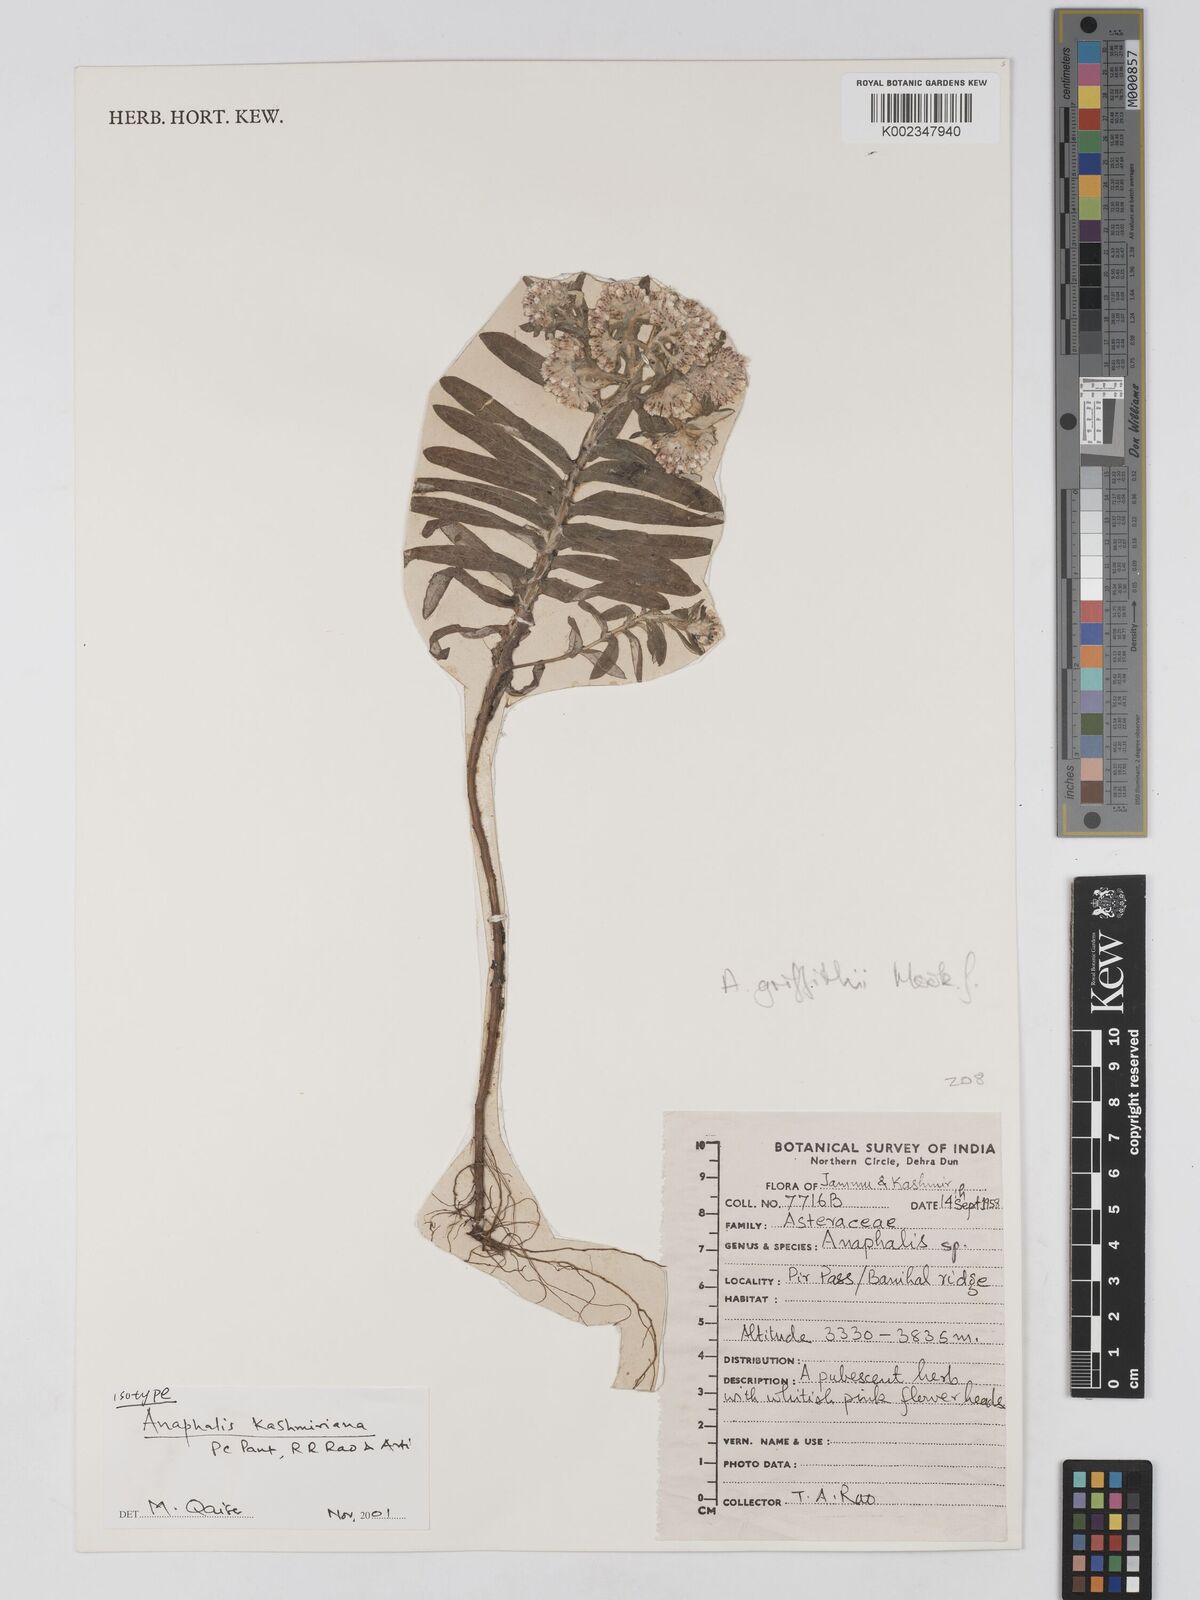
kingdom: Plantae
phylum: Tracheophyta
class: Magnoliopsida
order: Asterales
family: Asteraceae
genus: Anaphalis
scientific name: Anaphalis leptophylla
